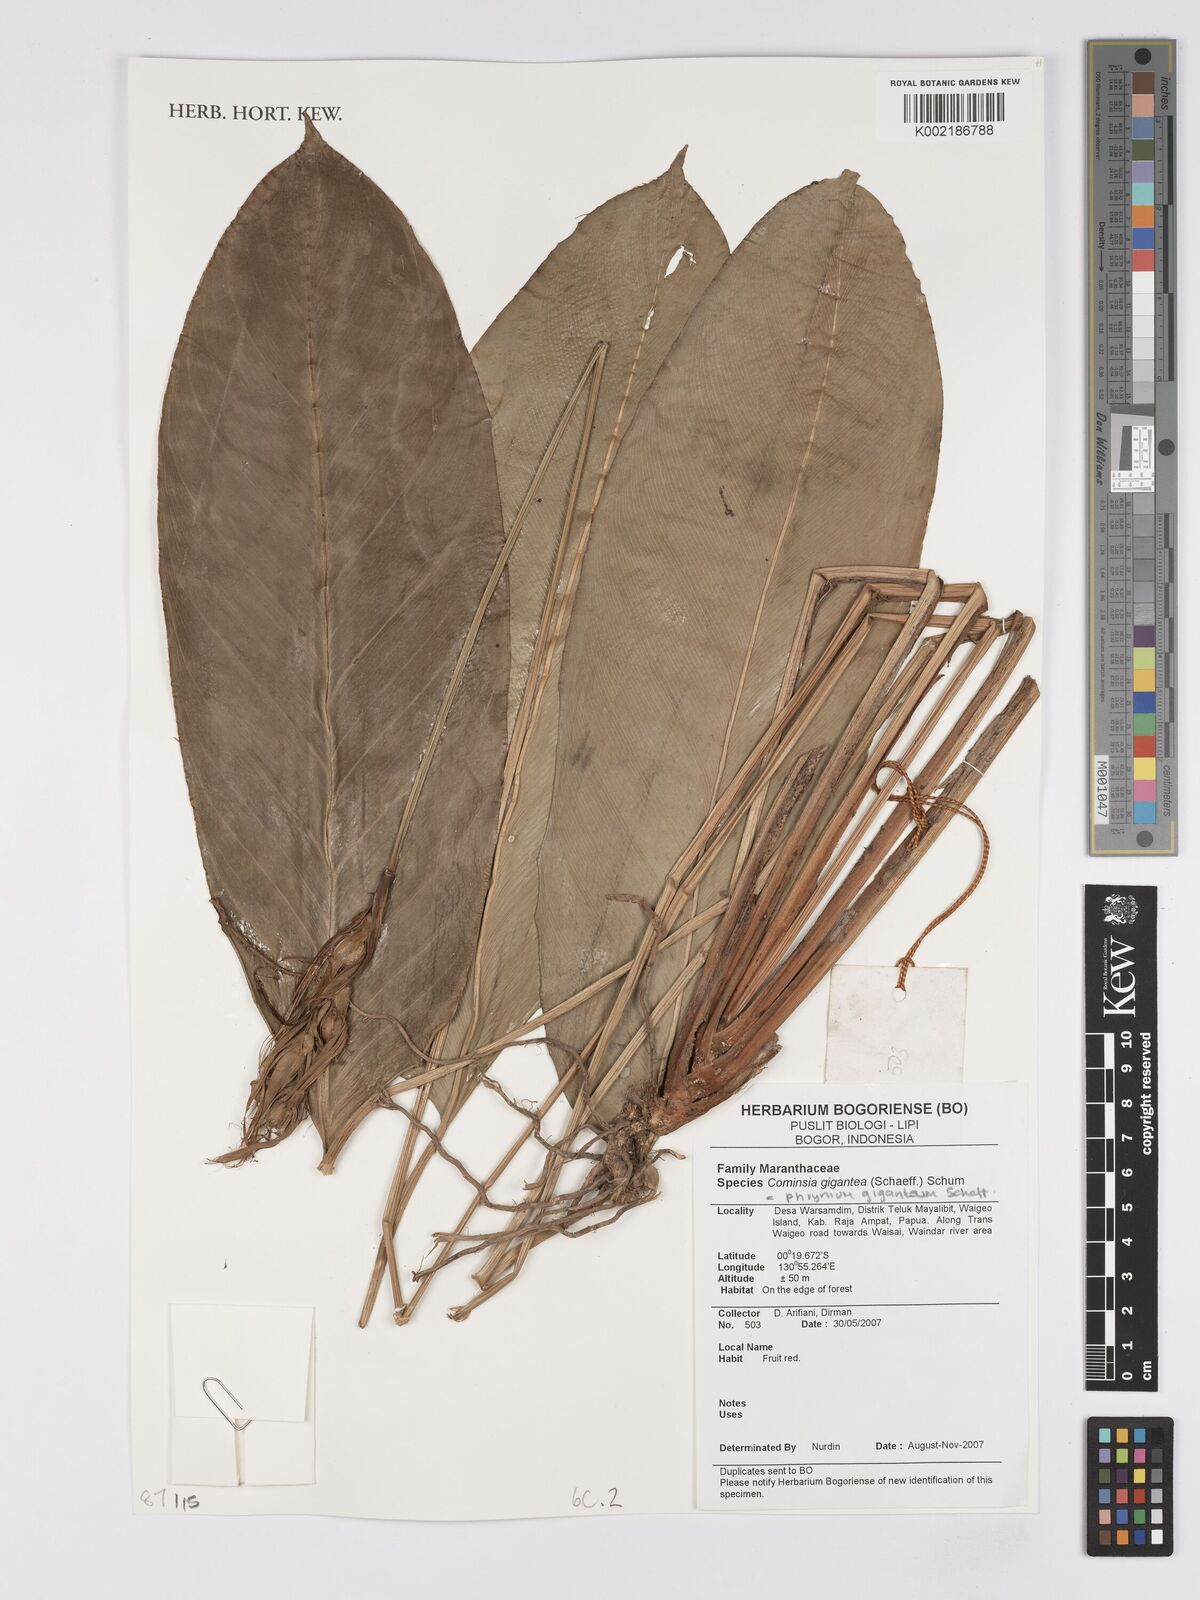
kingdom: Plantae
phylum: Tracheophyta
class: Liliopsida
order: Zingiberales
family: Marantaceae
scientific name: Marantaceae
